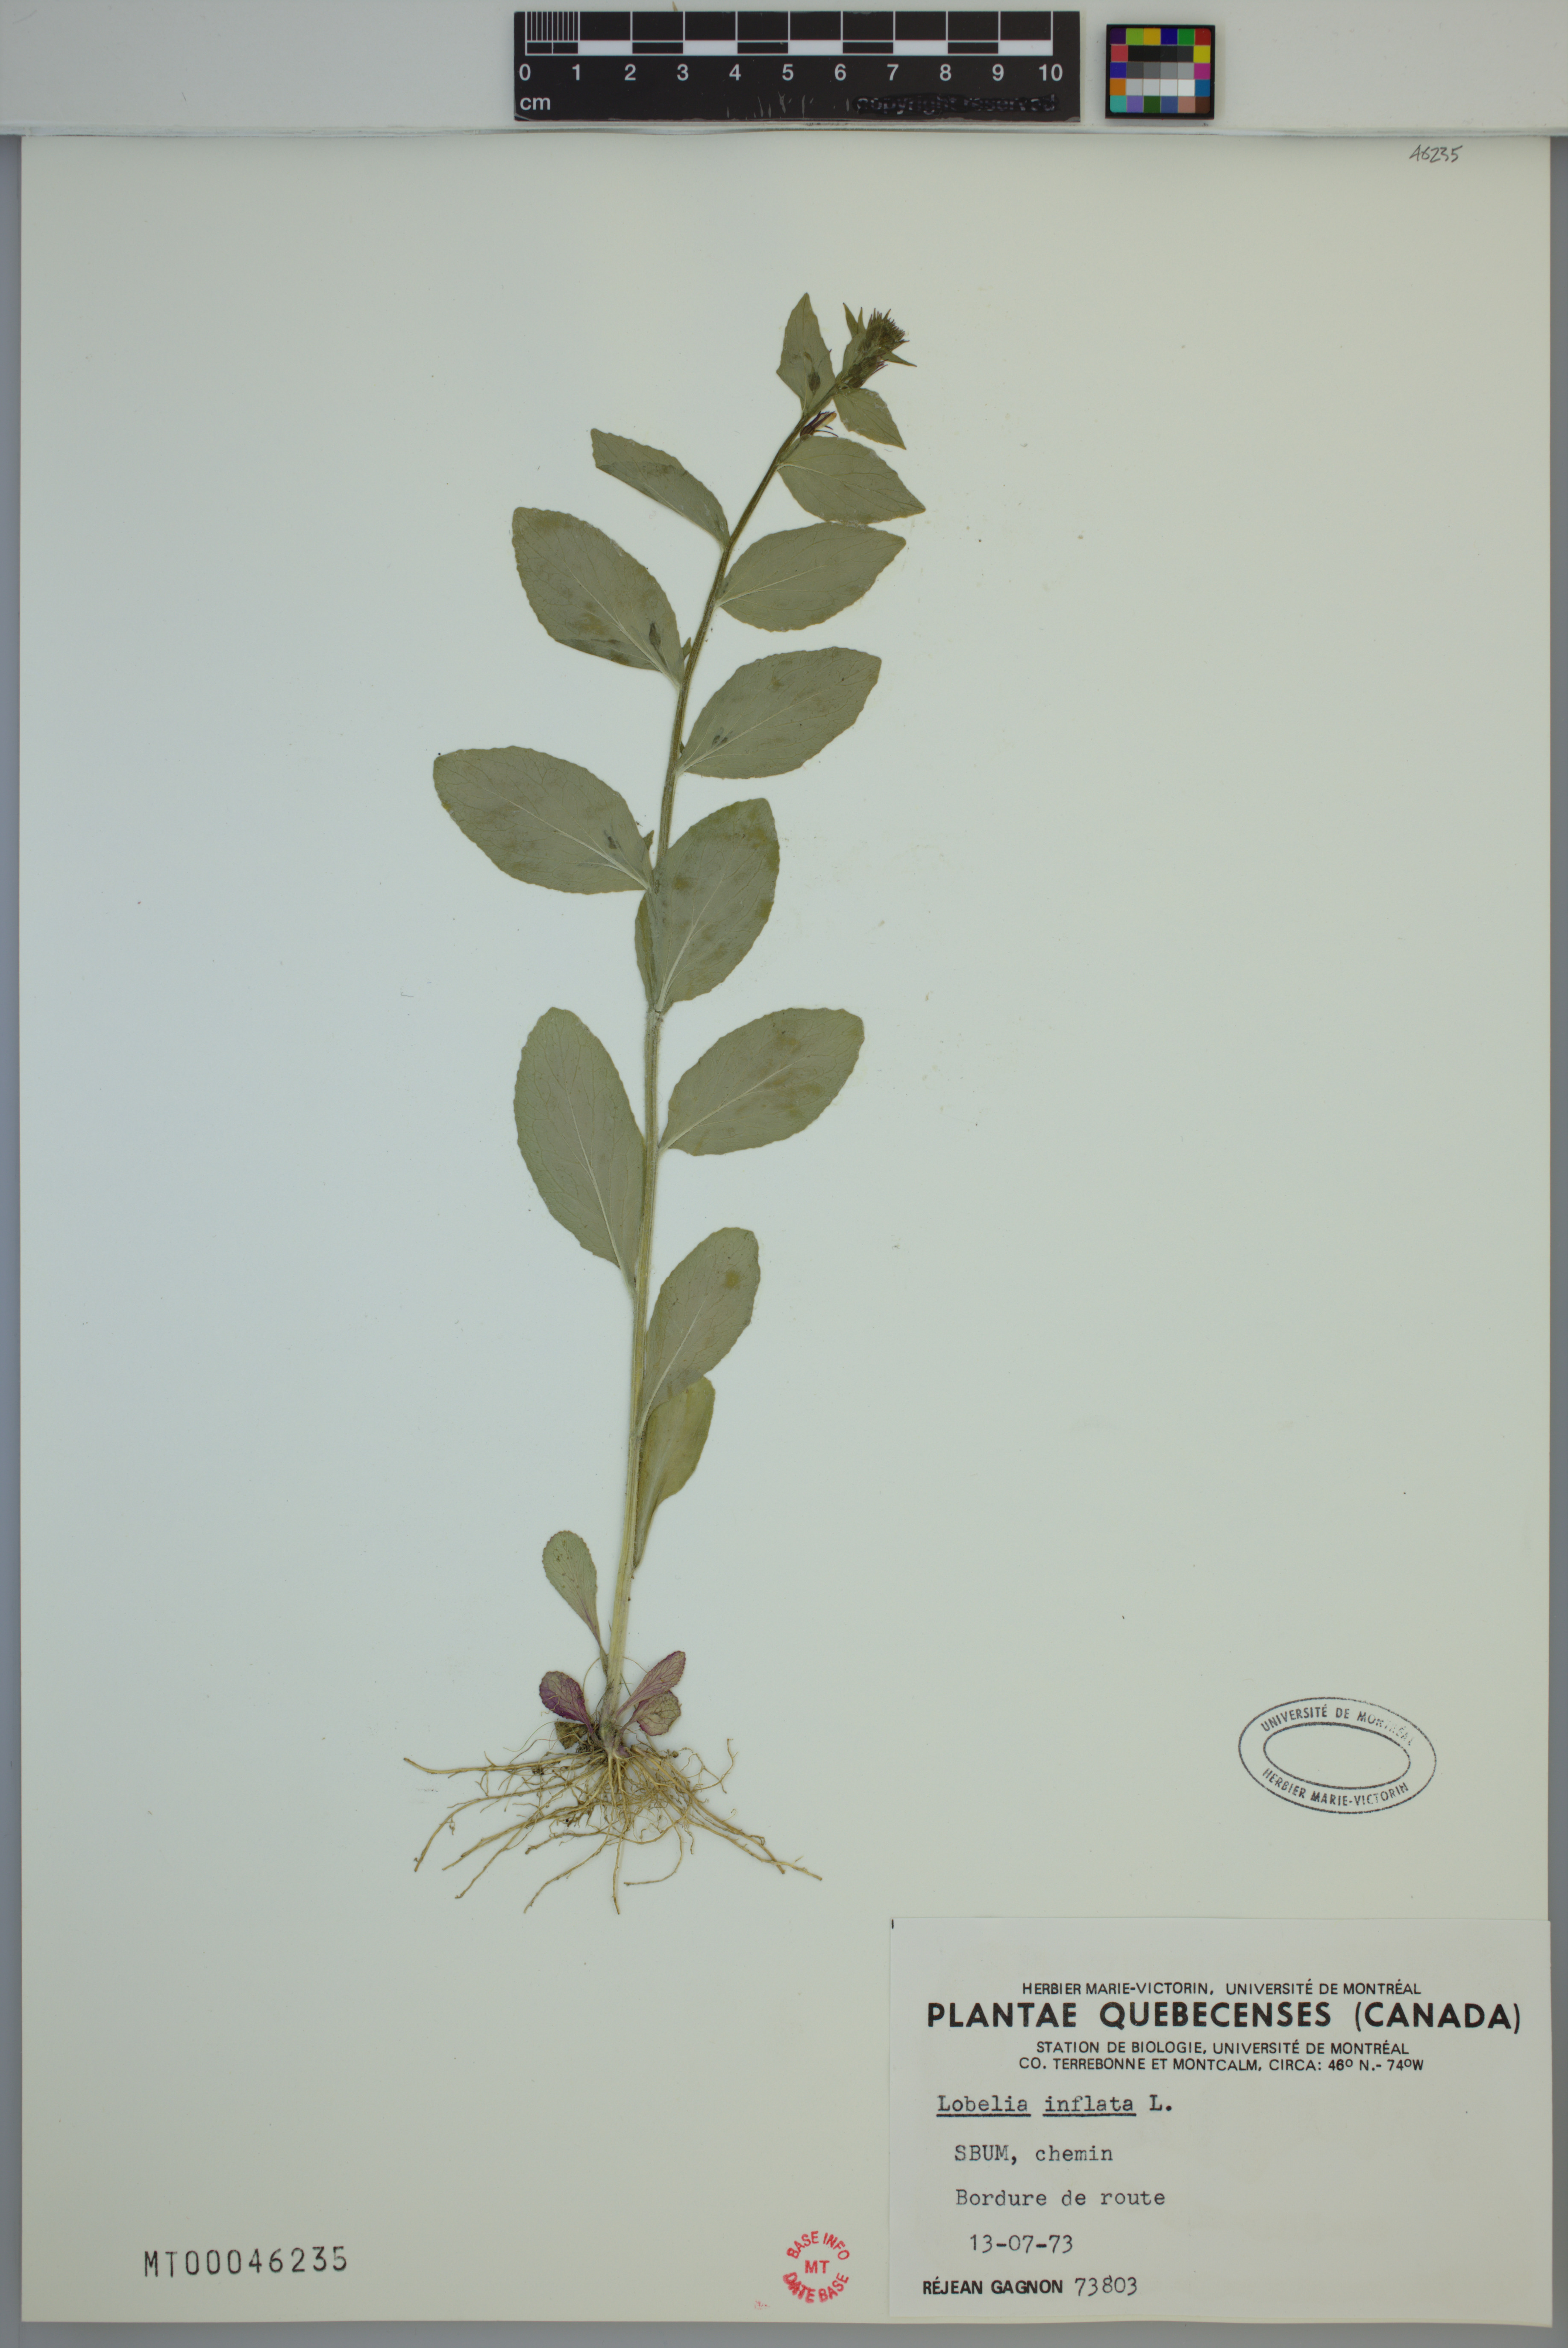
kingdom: Plantae
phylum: Tracheophyta
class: Magnoliopsida
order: Asterales
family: Campanulaceae
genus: Lobelia
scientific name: Lobelia inflata
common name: Indian tobacco
